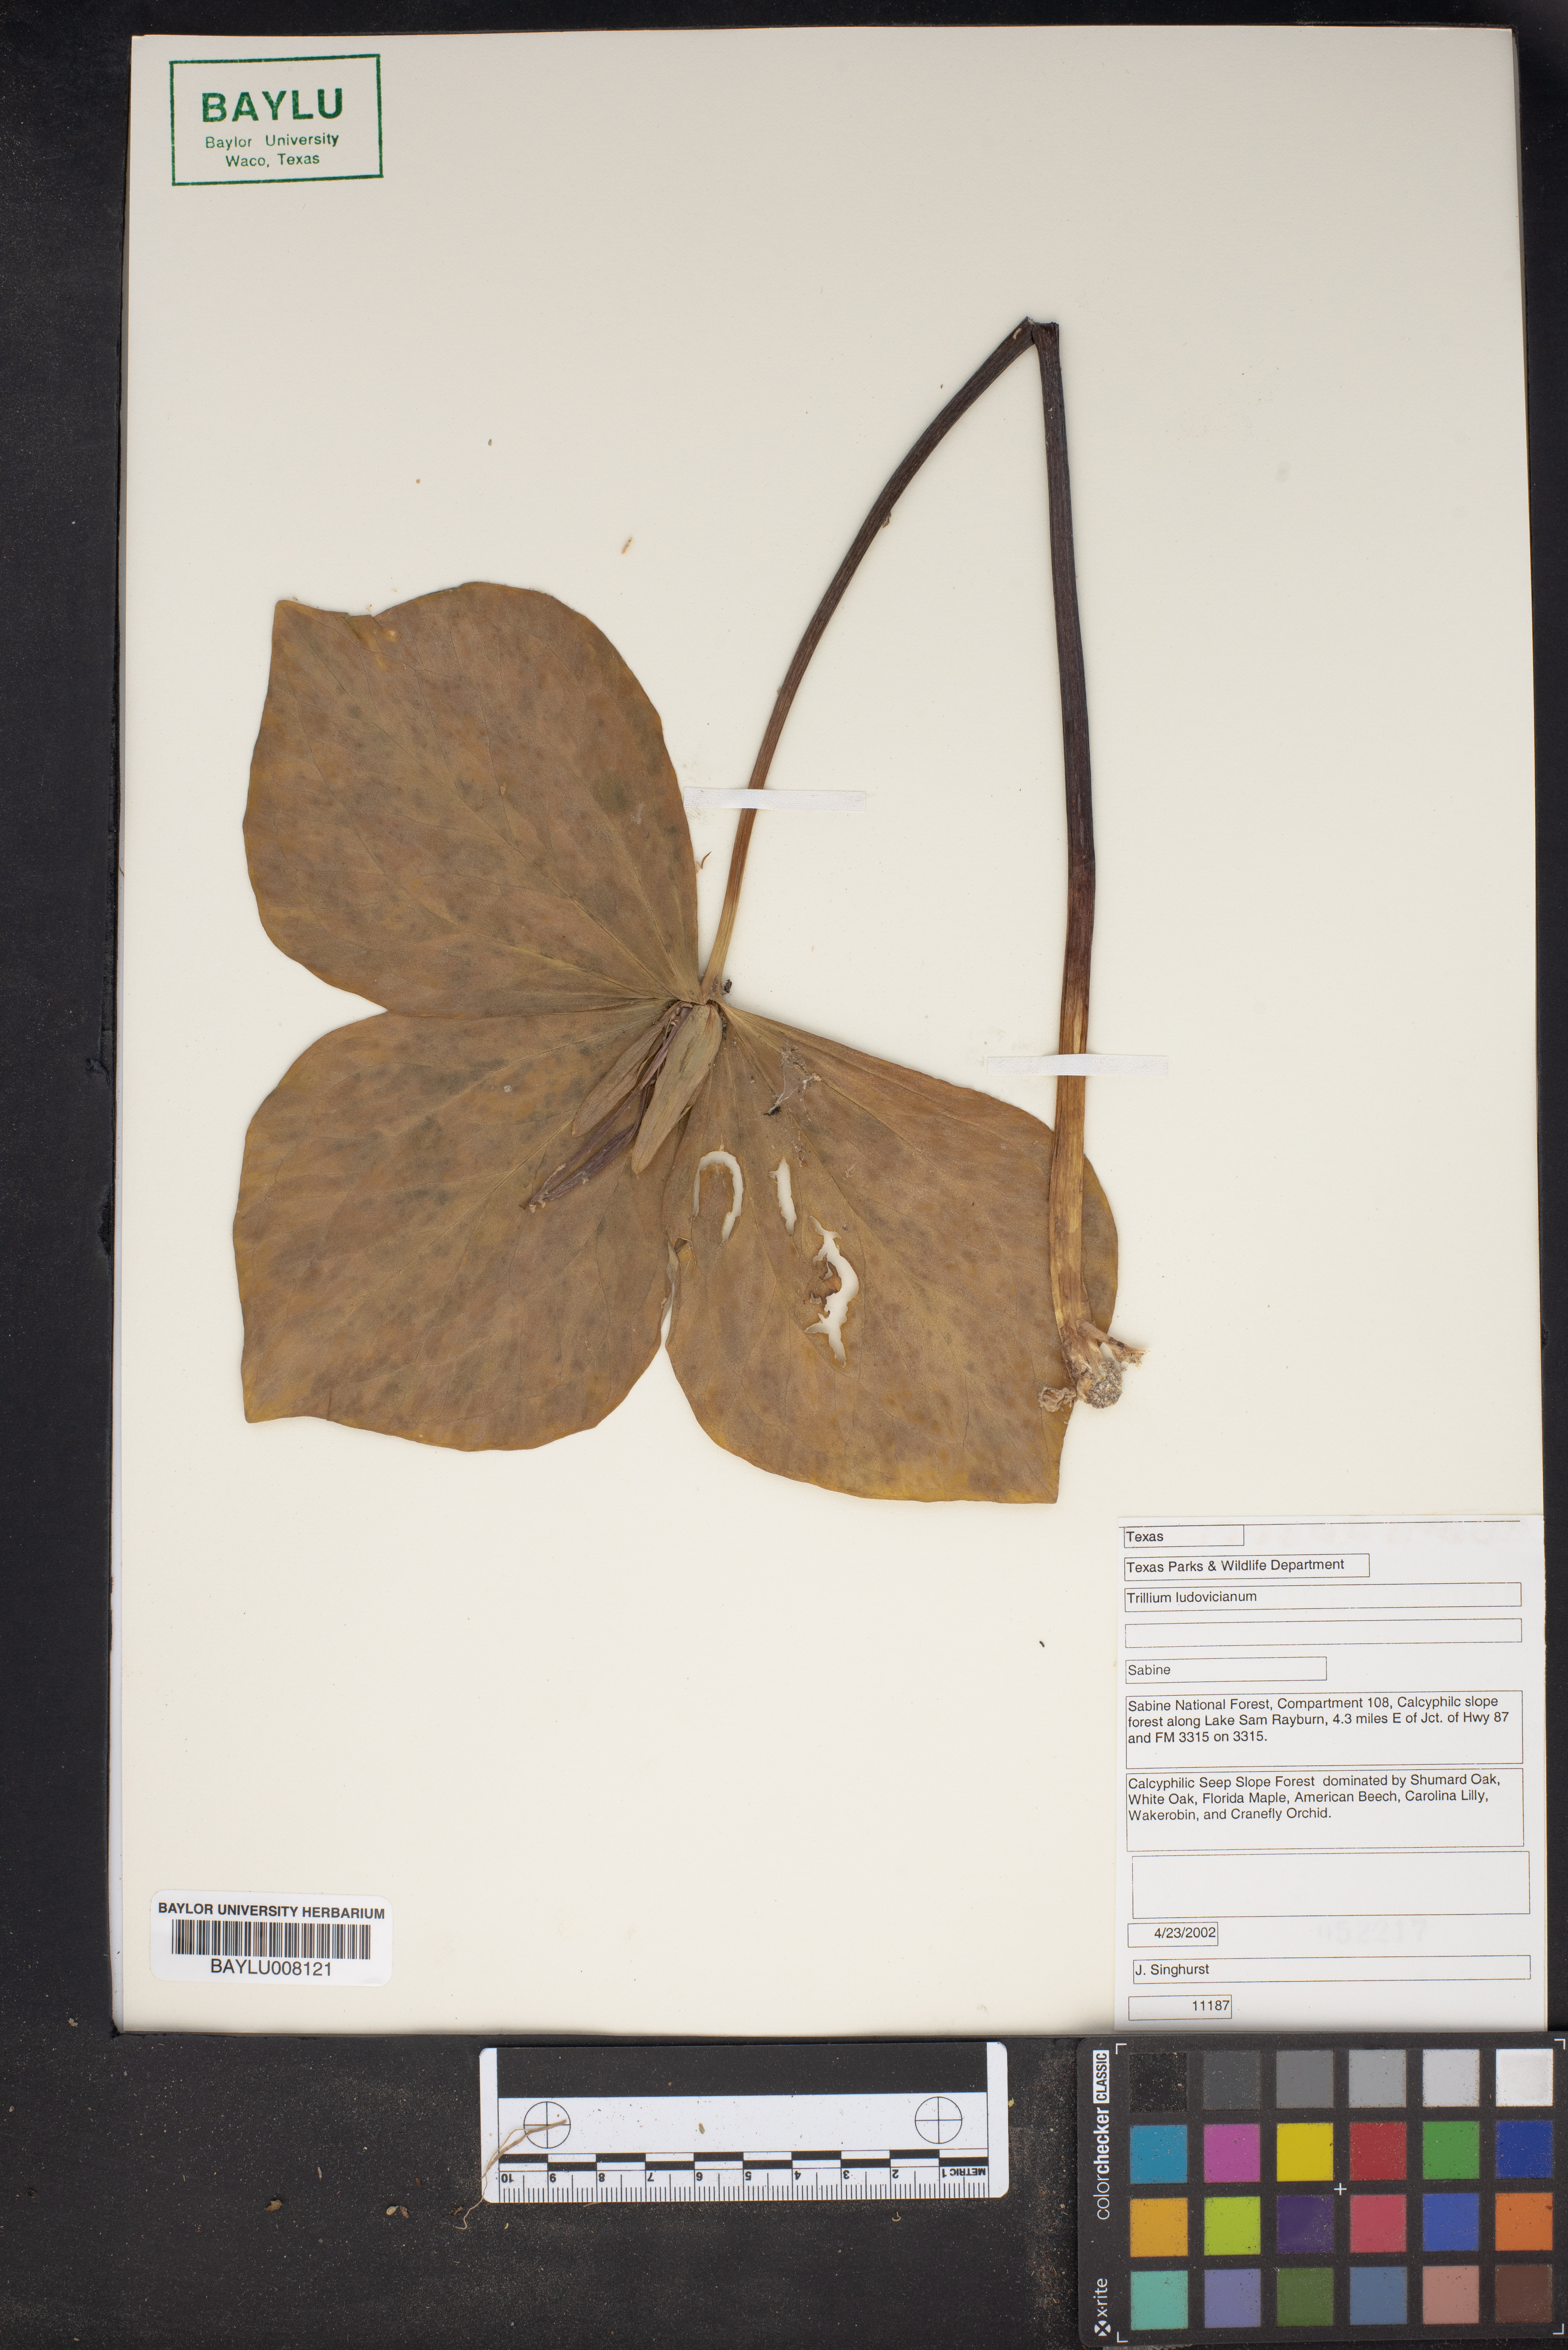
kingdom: Plantae
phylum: Tracheophyta
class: Liliopsida
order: Liliales
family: Melanthiaceae
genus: Trillium
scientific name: Trillium ludovicianum
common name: Louisiana toadshade
